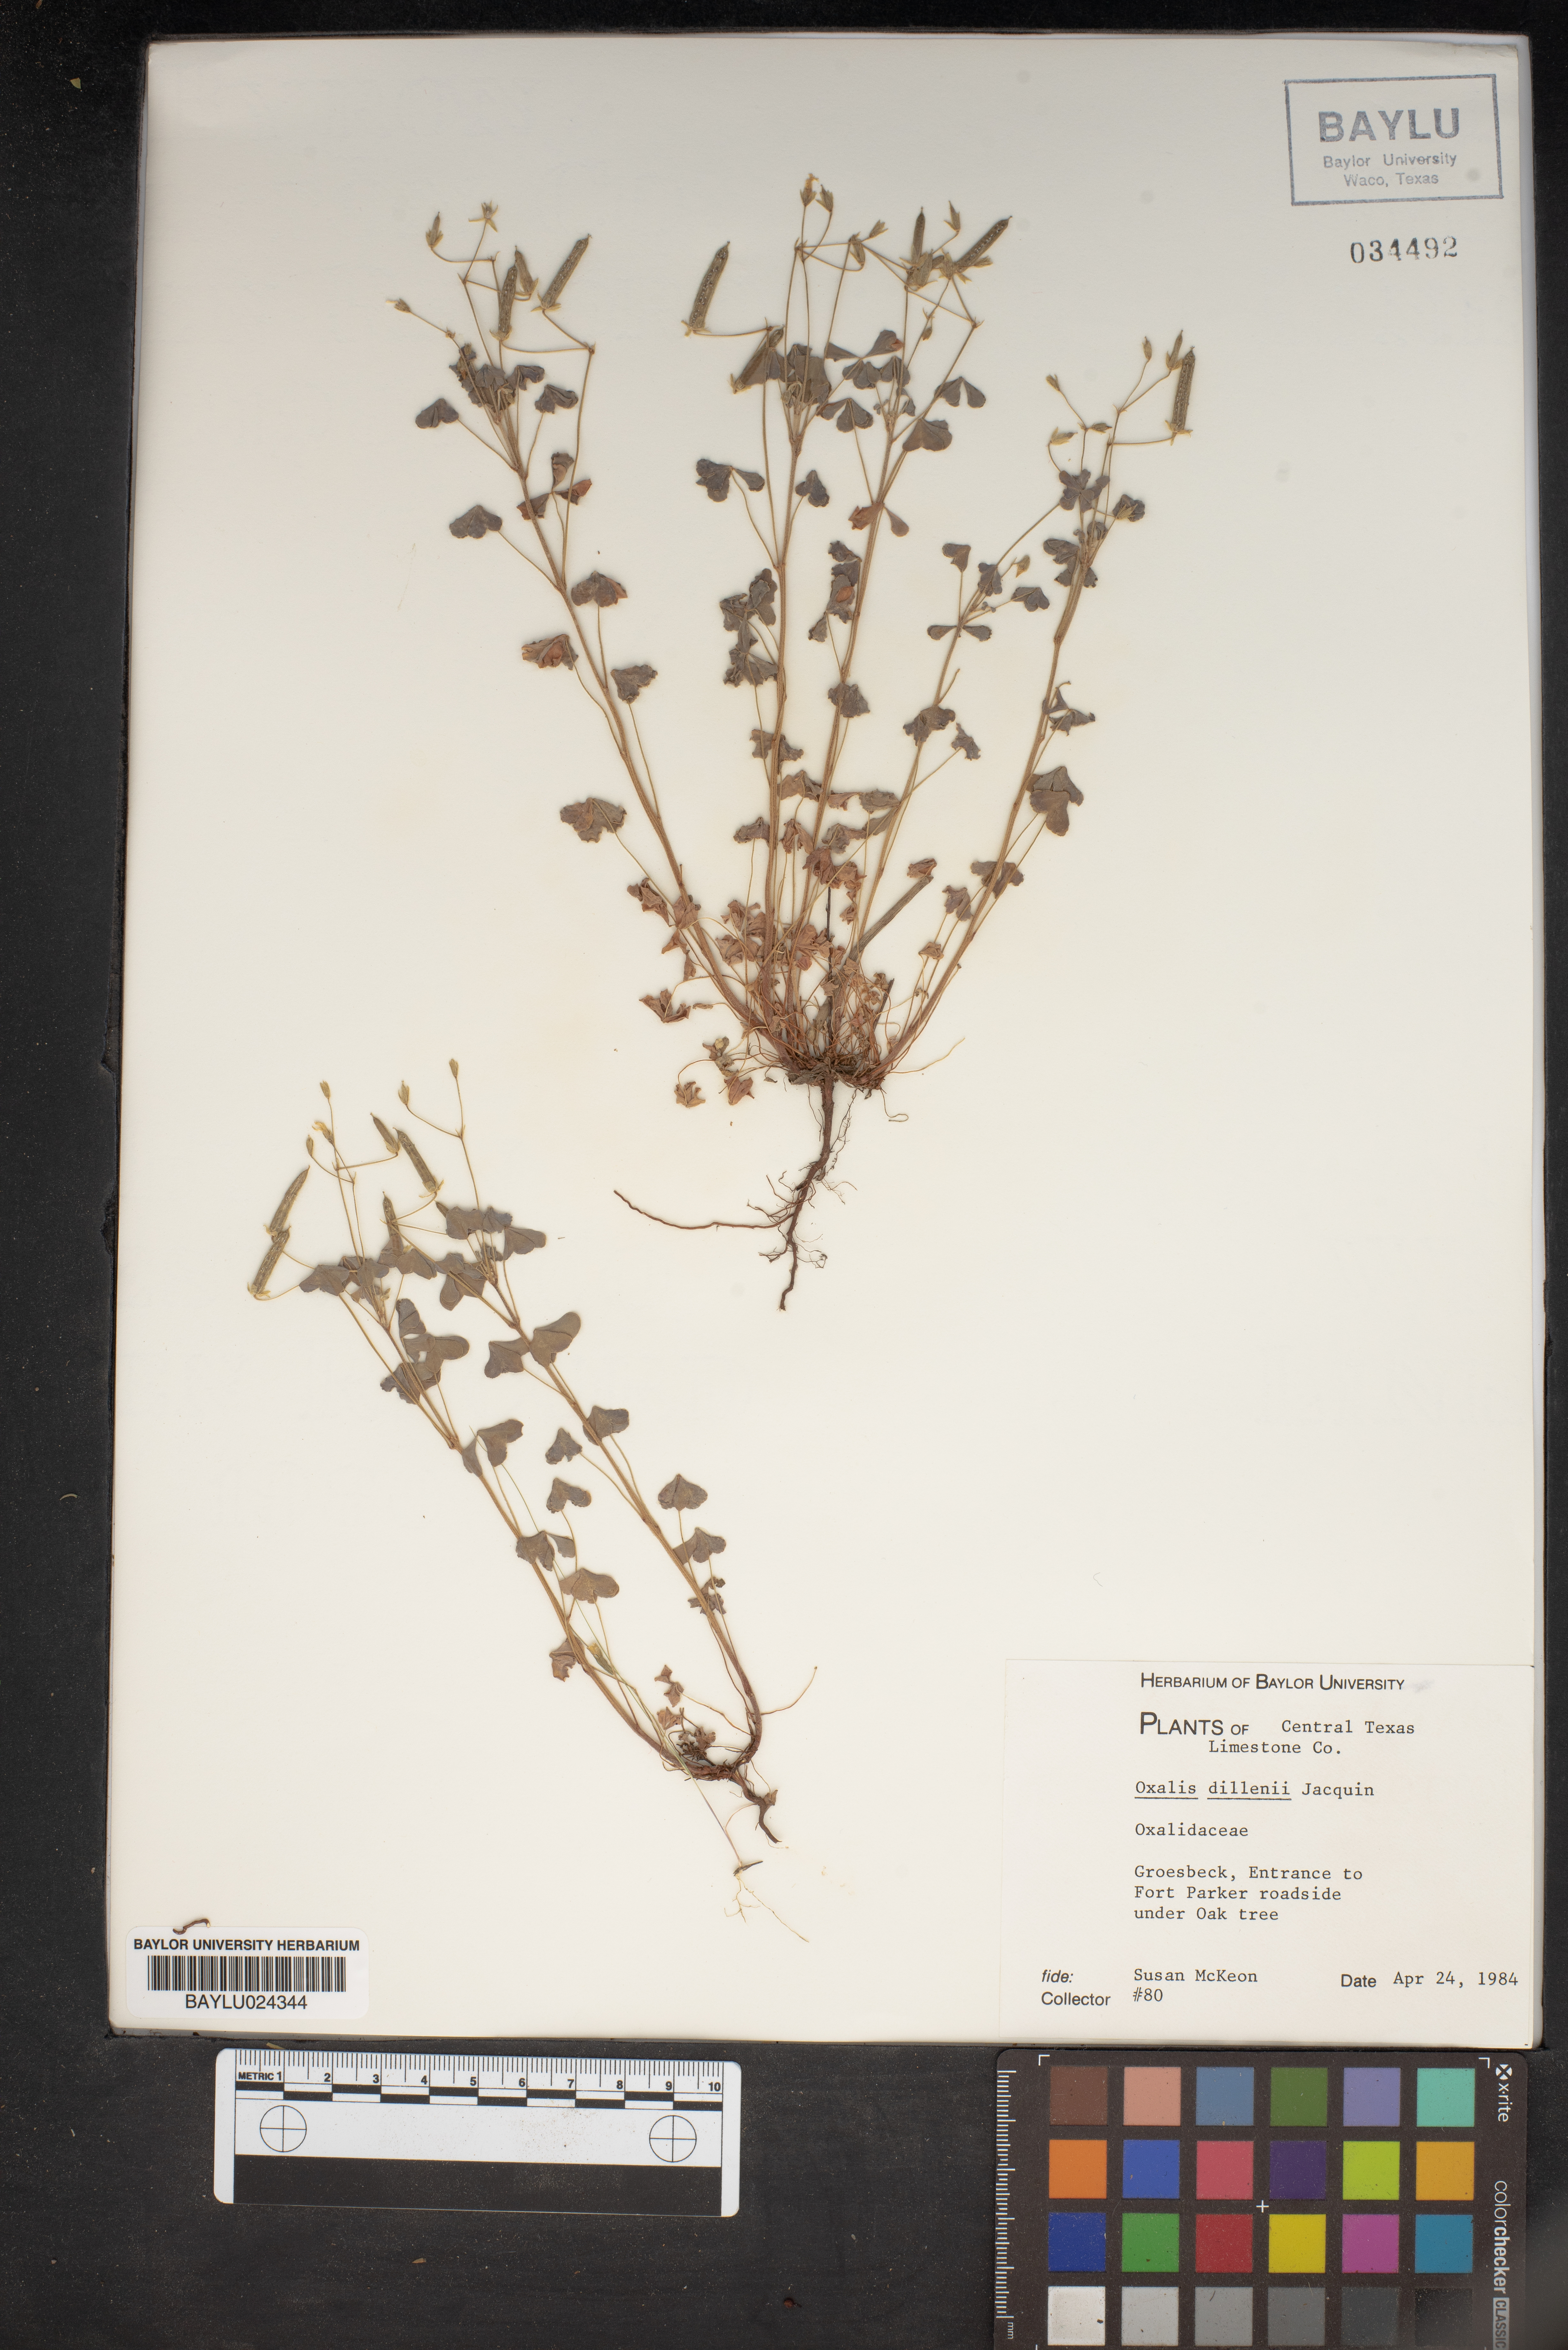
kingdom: Plantae
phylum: Tracheophyta
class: Magnoliopsida
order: Oxalidales
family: Oxalidaceae
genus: Oxalis
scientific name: Oxalis dillenii
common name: Sussex yellow-sorrel
